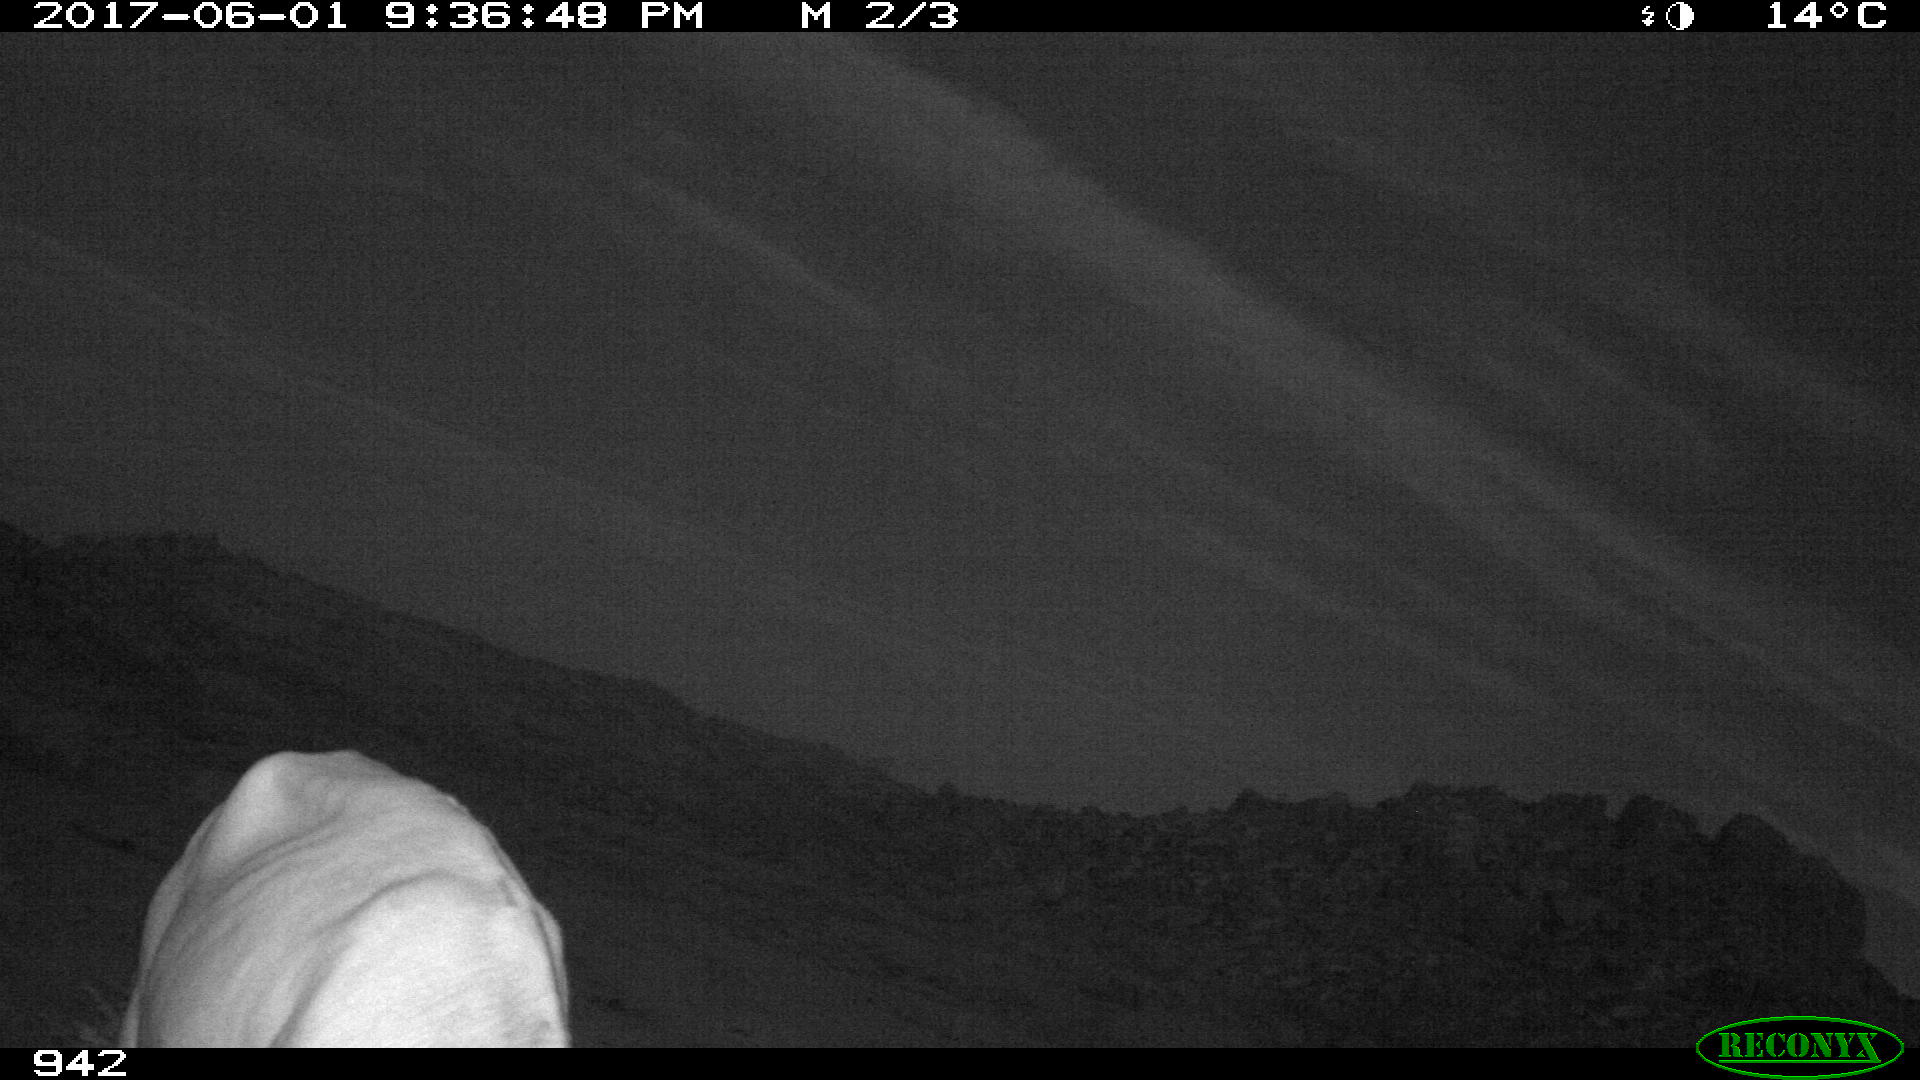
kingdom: Animalia
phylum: Chordata
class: Mammalia
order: Artiodactyla
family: Bovidae
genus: Bos
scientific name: Bos taurus
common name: Domesticated cattle
